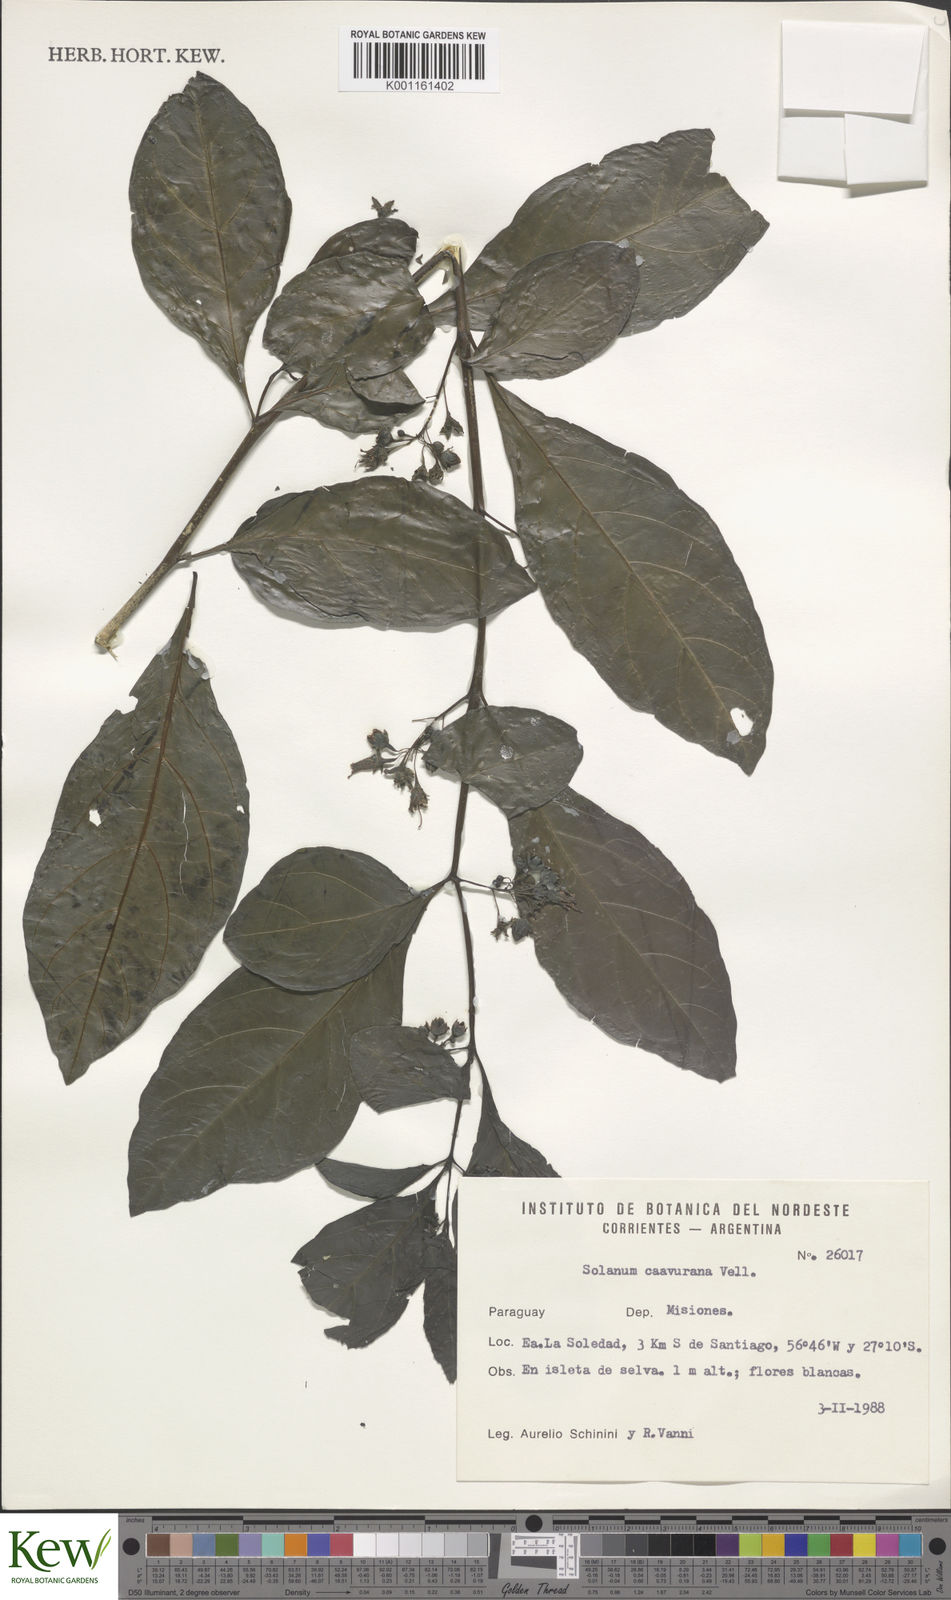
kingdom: Plantae
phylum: Tracheophyta
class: Magnoliopsida
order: Solanales
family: Solanaceae
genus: Solanum
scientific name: Solanum caavurana
